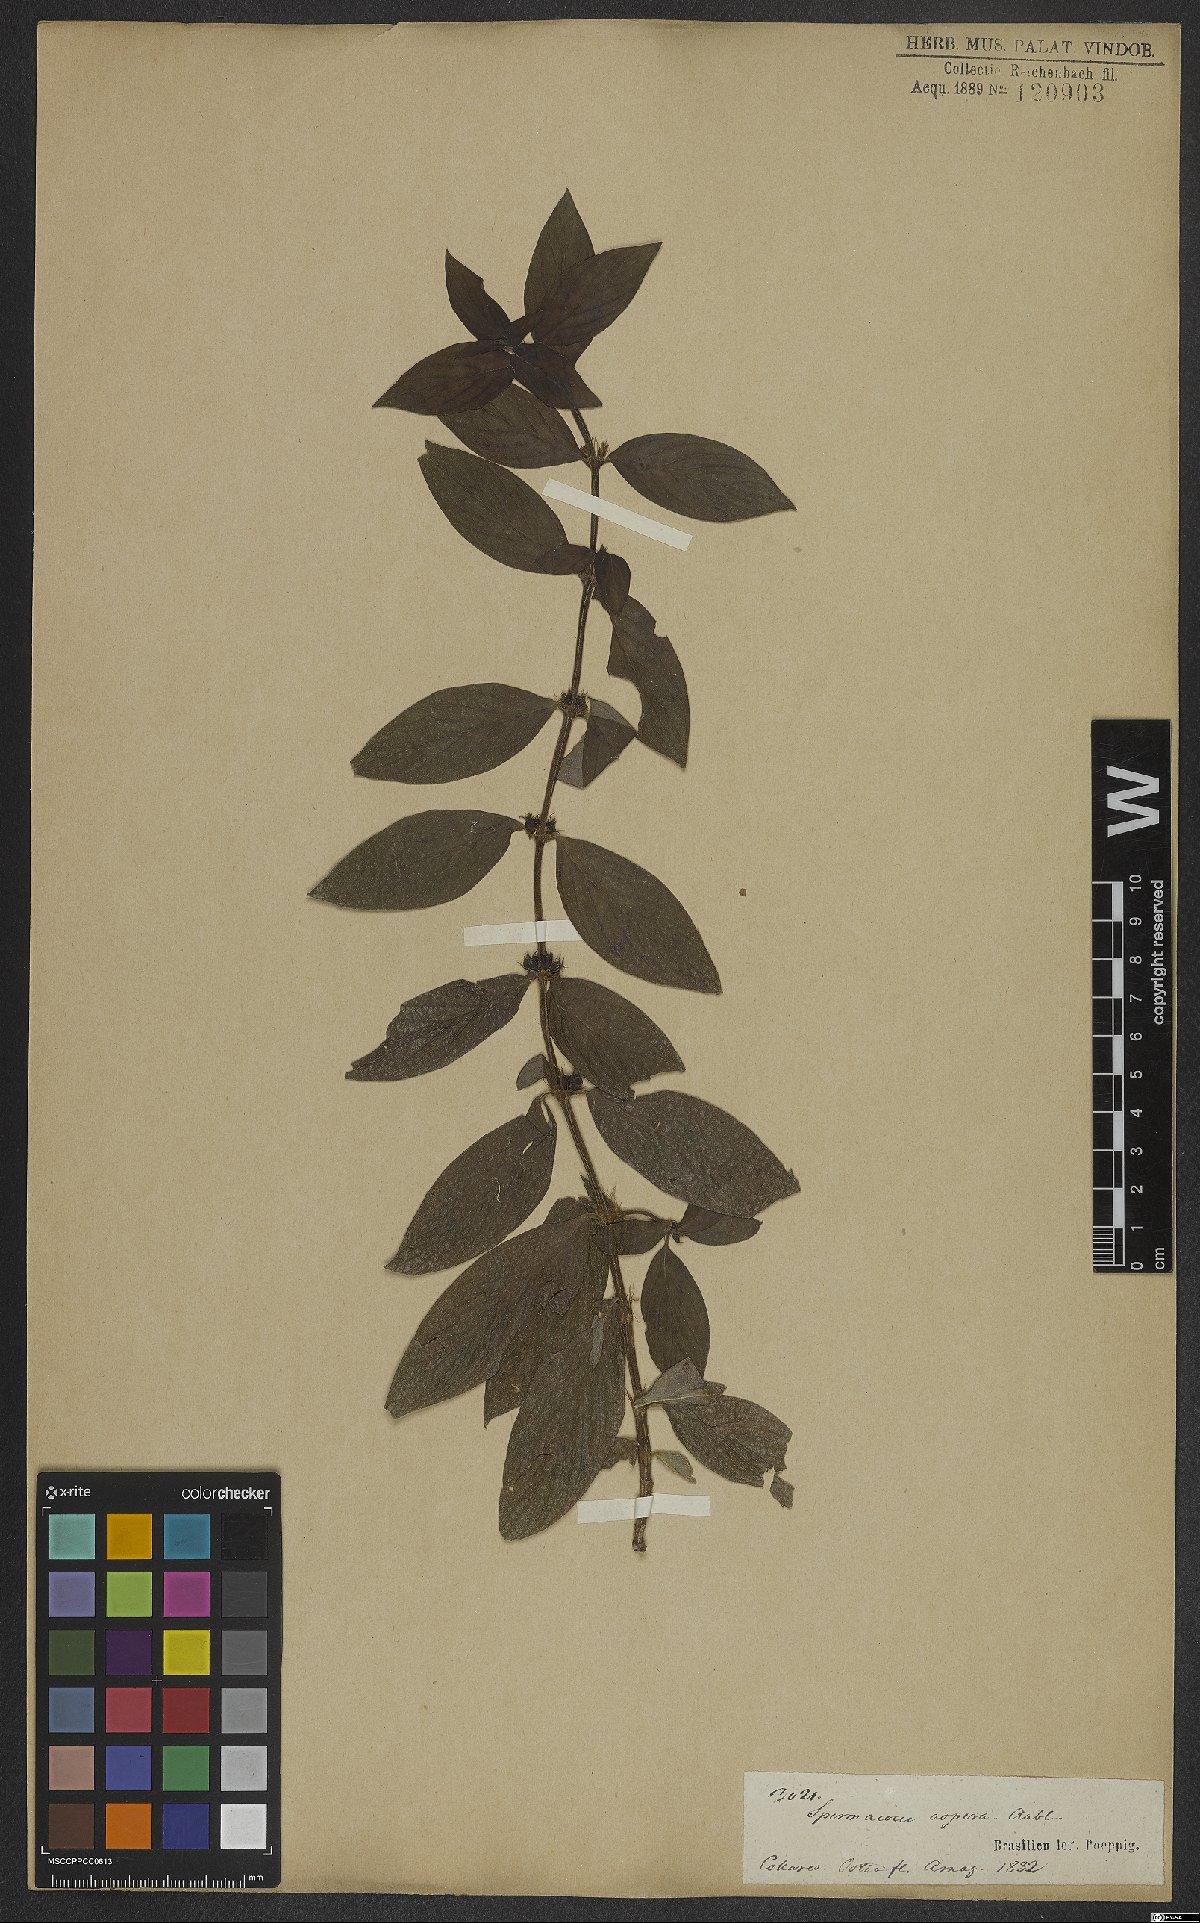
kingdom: Plantae
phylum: Tracheophyta
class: Magnoliopsida
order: Gentianales
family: Rubiaceae
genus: Spermacoce
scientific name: Spermacoce ocymoides
